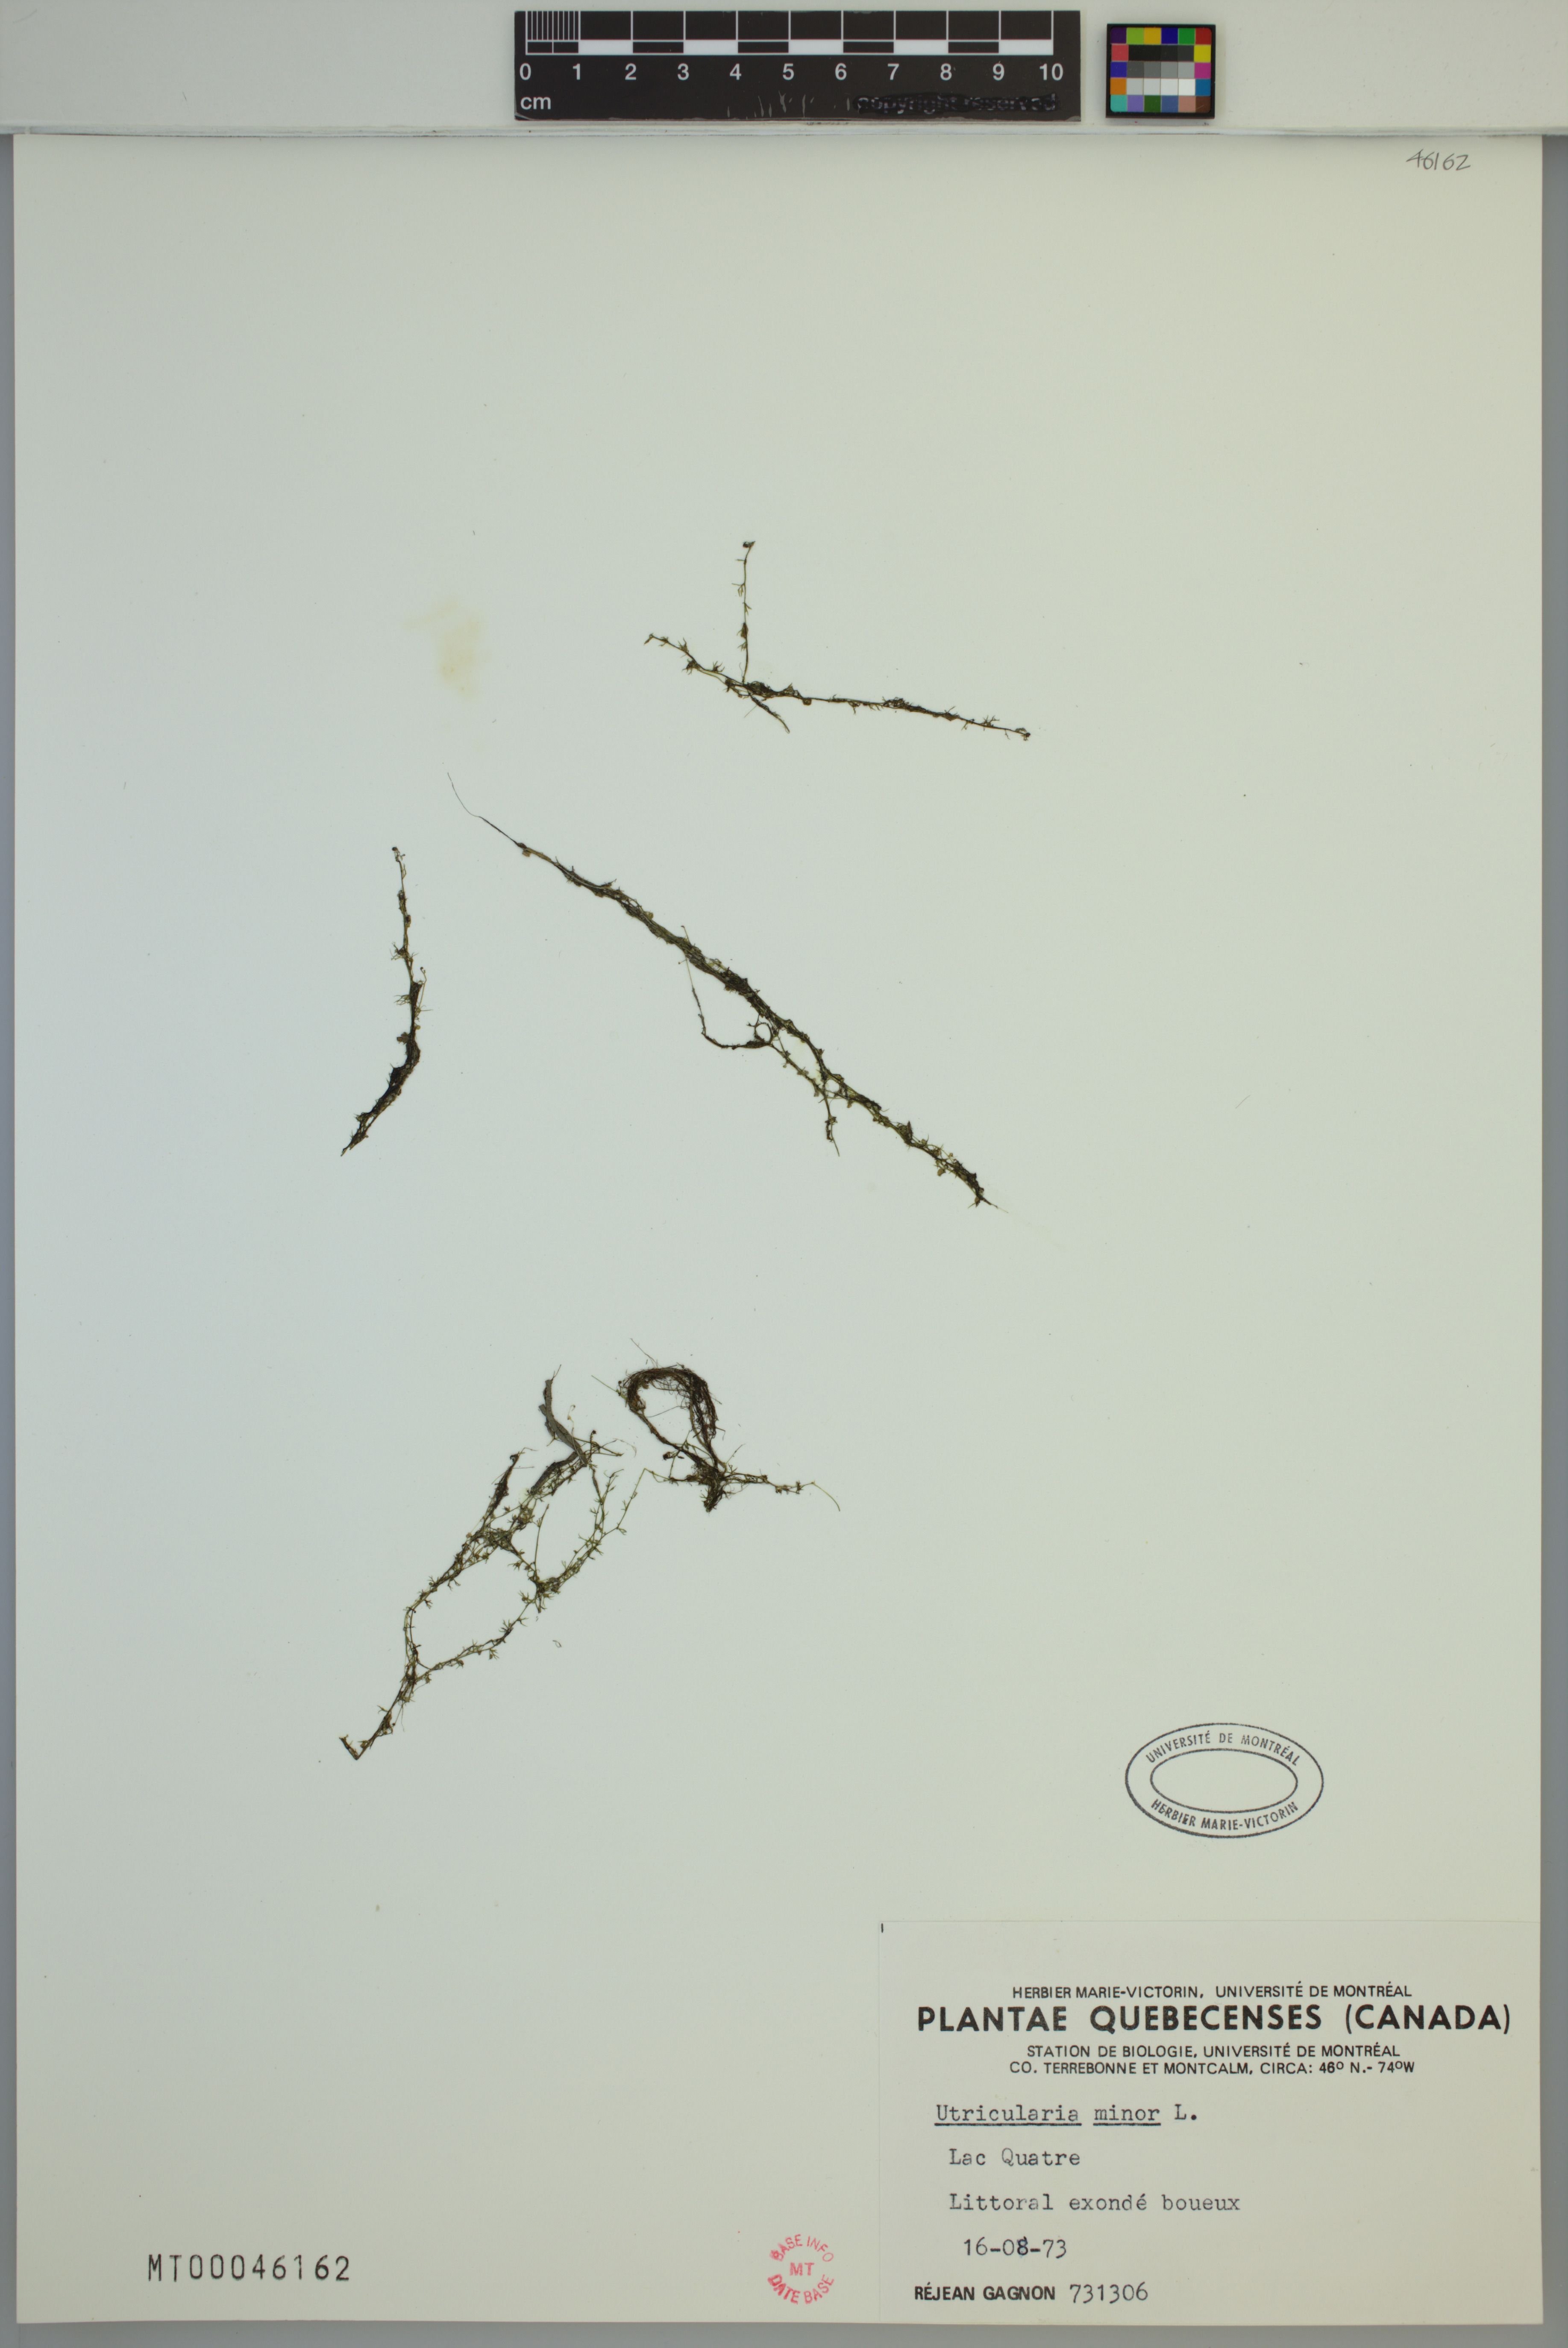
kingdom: Plantae
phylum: Tracheophyta
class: Magnoliopsida
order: Lamiales
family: Lentibulariaceae
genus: Utricularia
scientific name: Utricularia minor
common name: Lesser bladderwort
